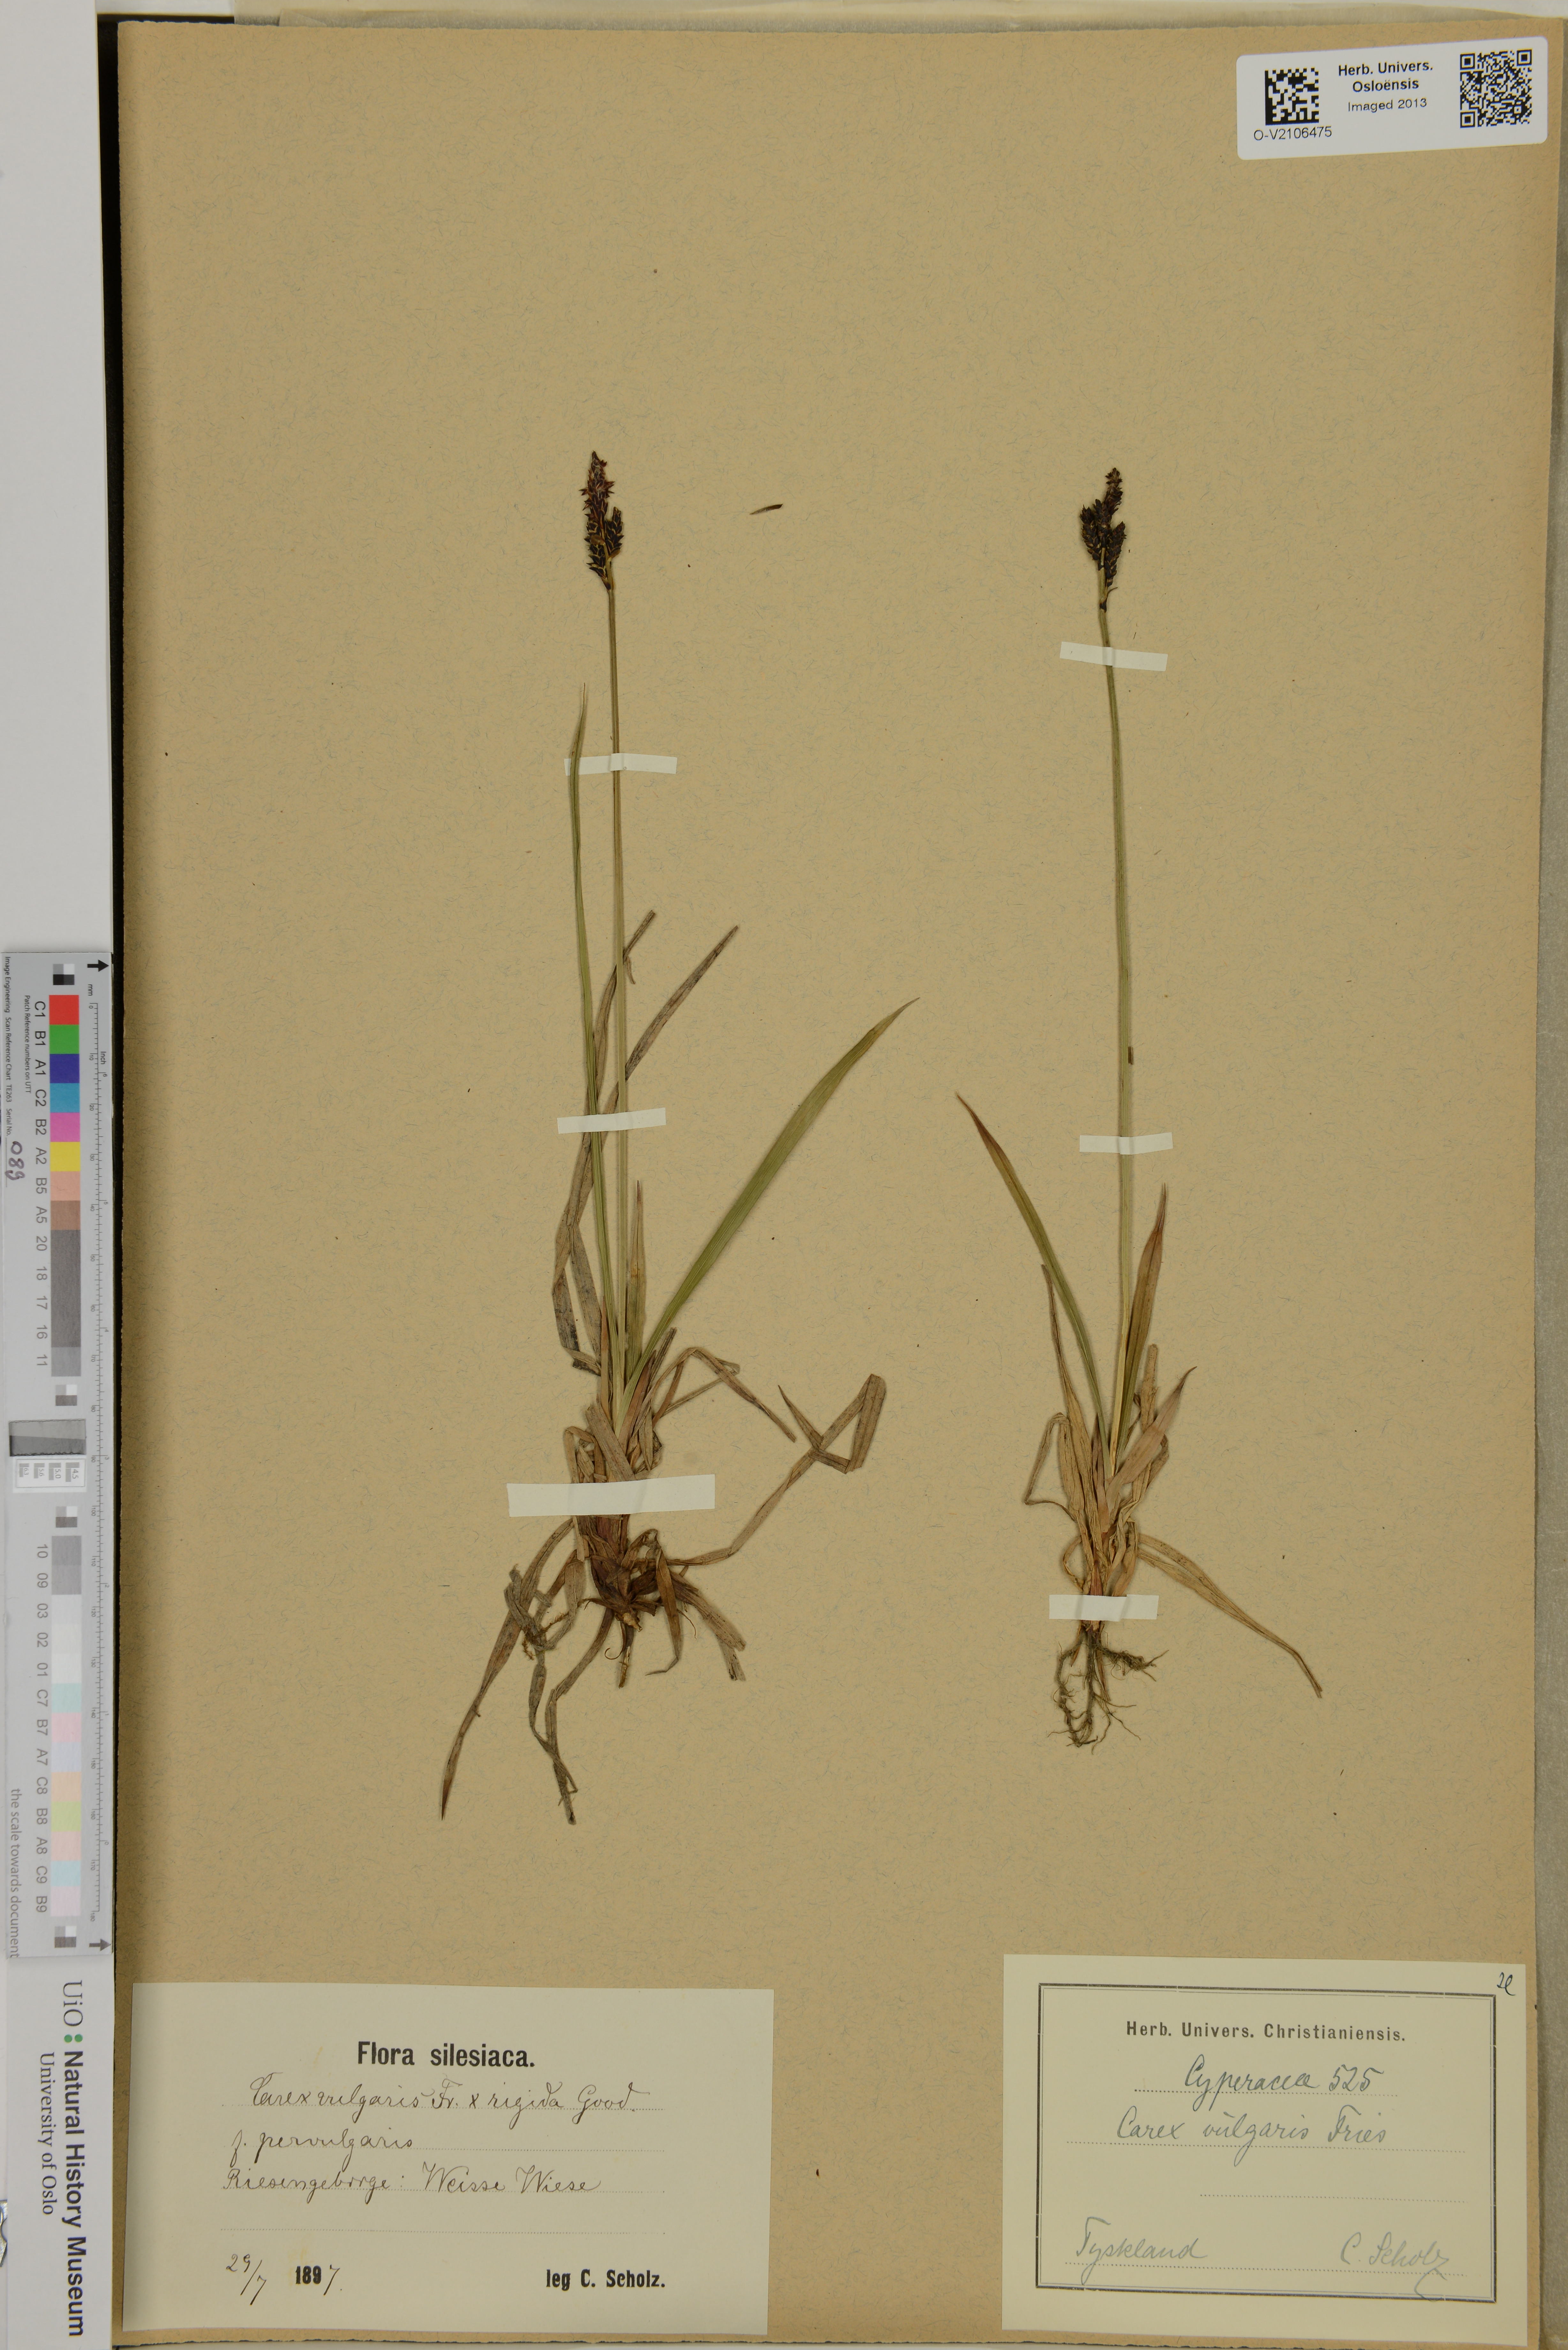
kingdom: Plantae
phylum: Tracheophyta
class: Liliopsida
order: Poales
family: Cyperaceae
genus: Carex
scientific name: Carex nigra
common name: Common sedge
